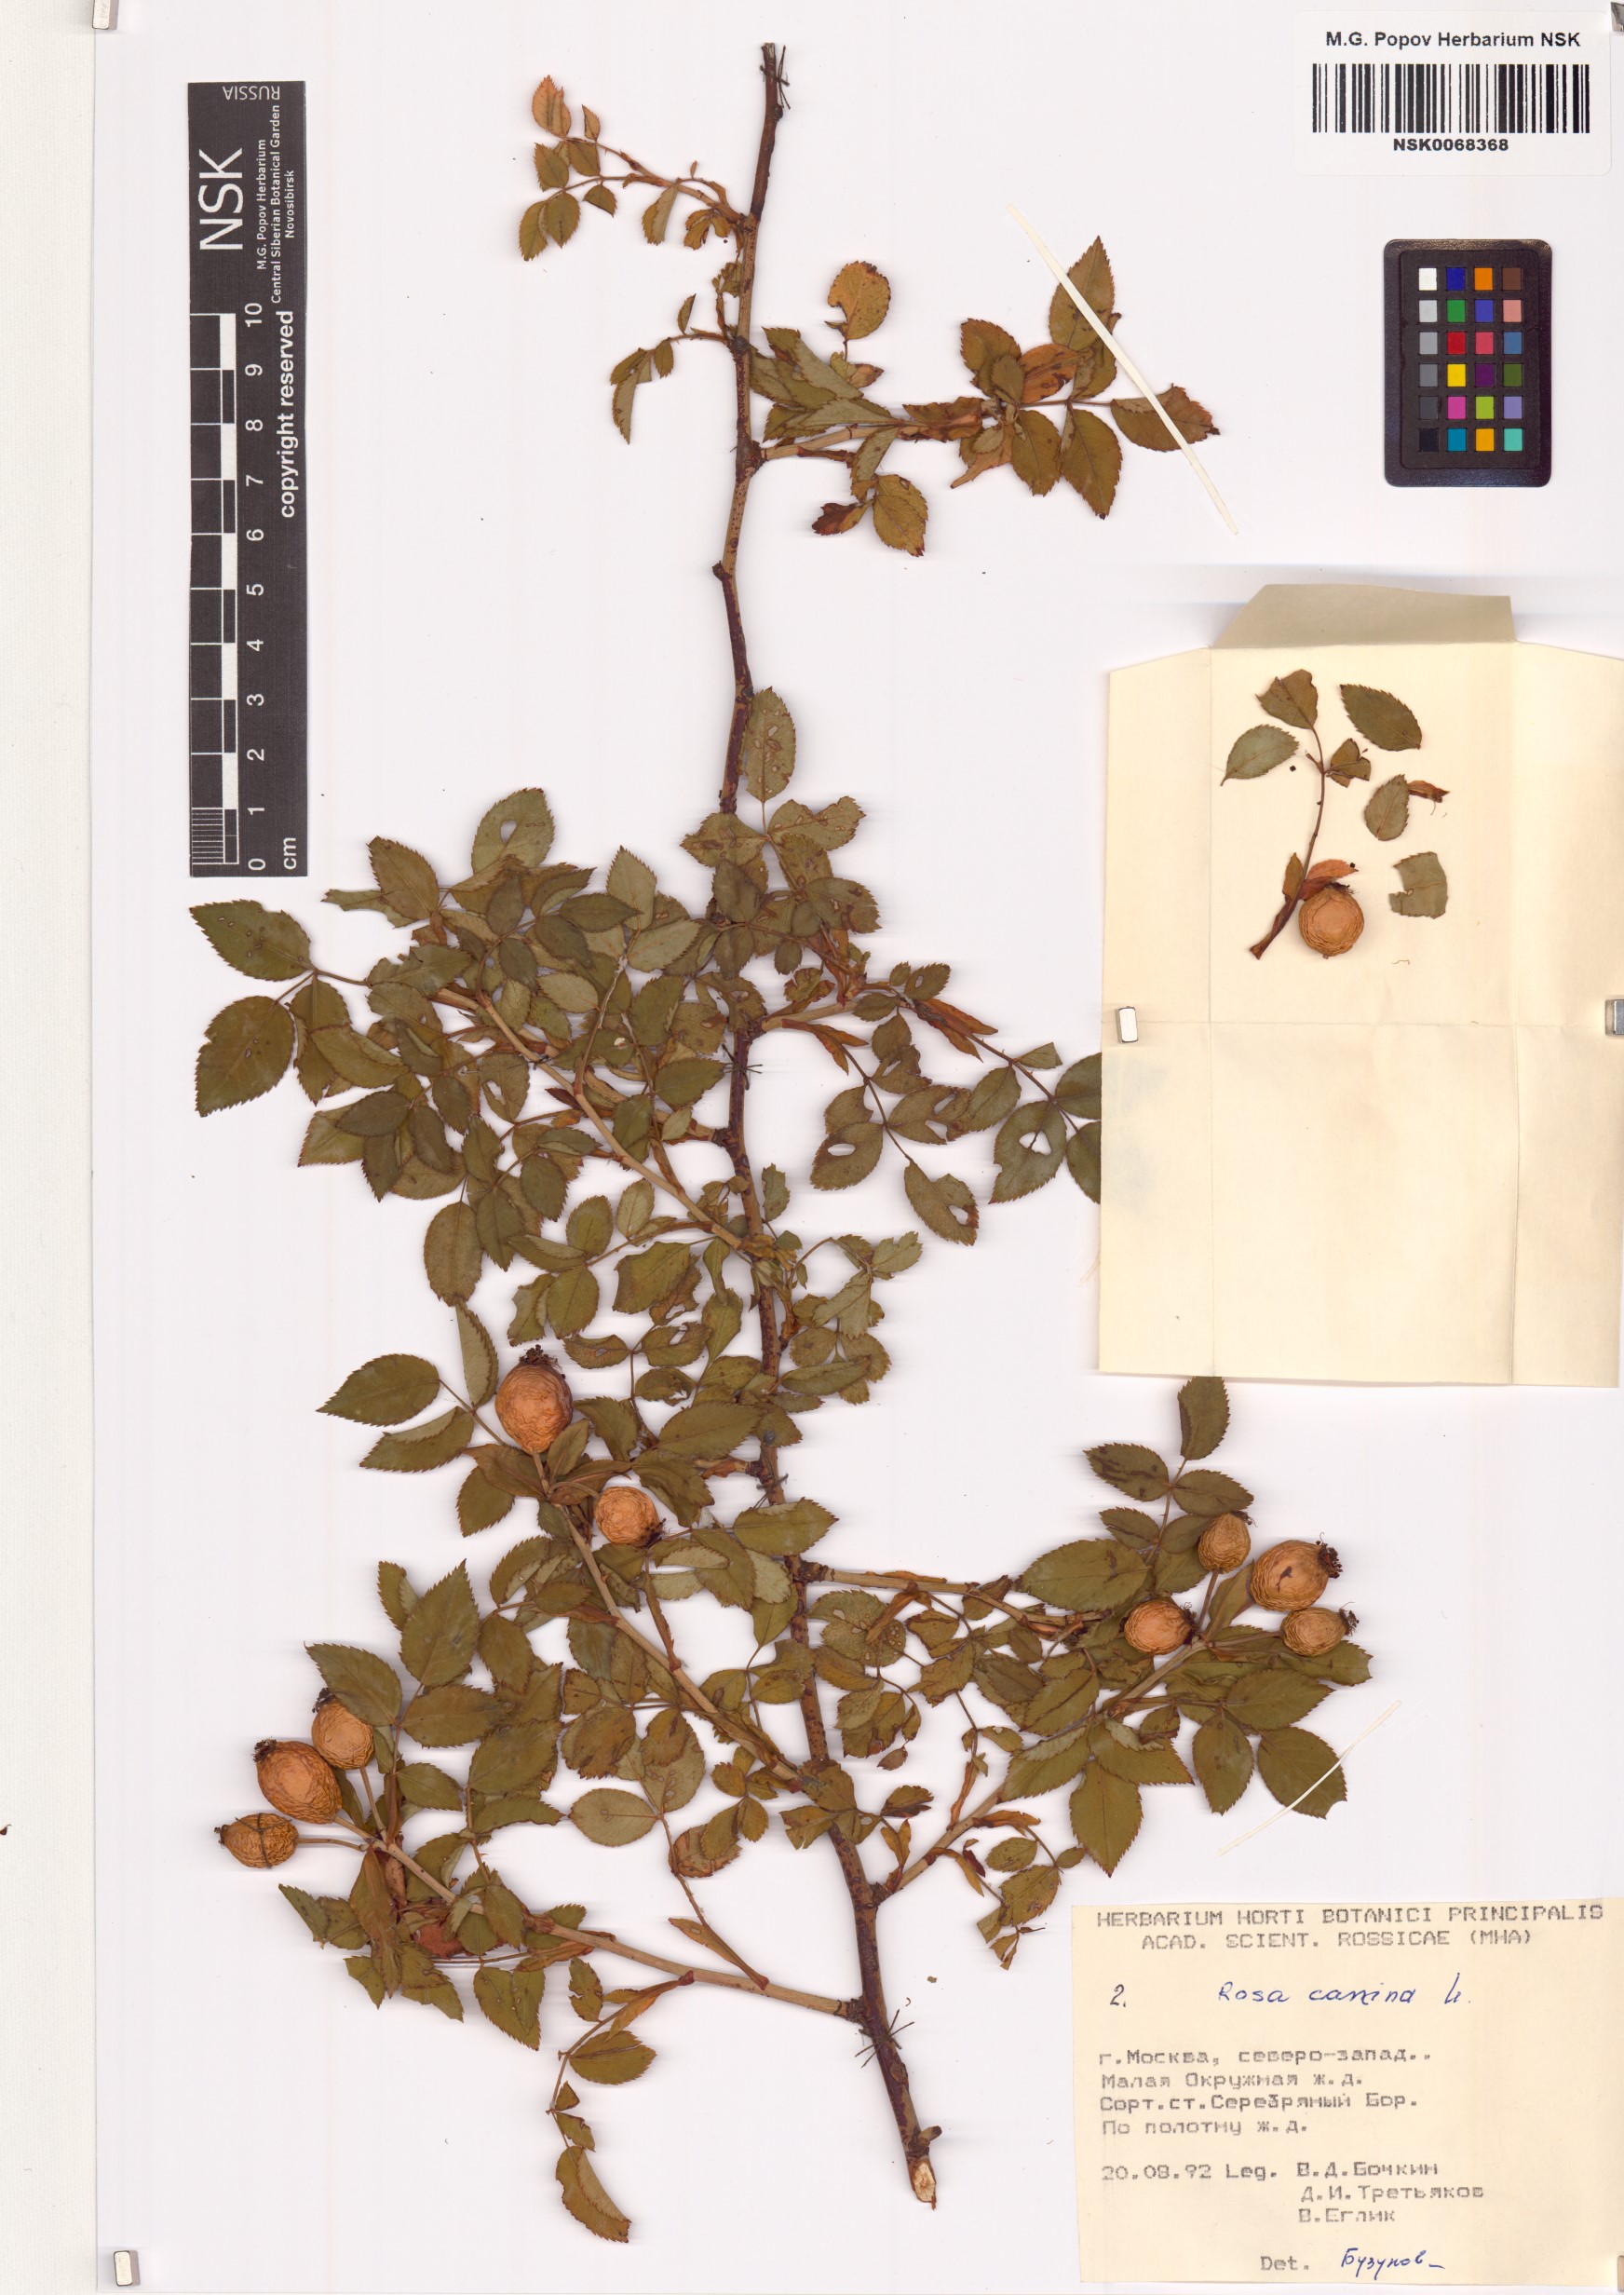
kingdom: Plantae
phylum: Tracheophyta
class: Magnoliopsida
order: Rosales
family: Rosaceae
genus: Rosa
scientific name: Rosa canina
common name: Dog rose
